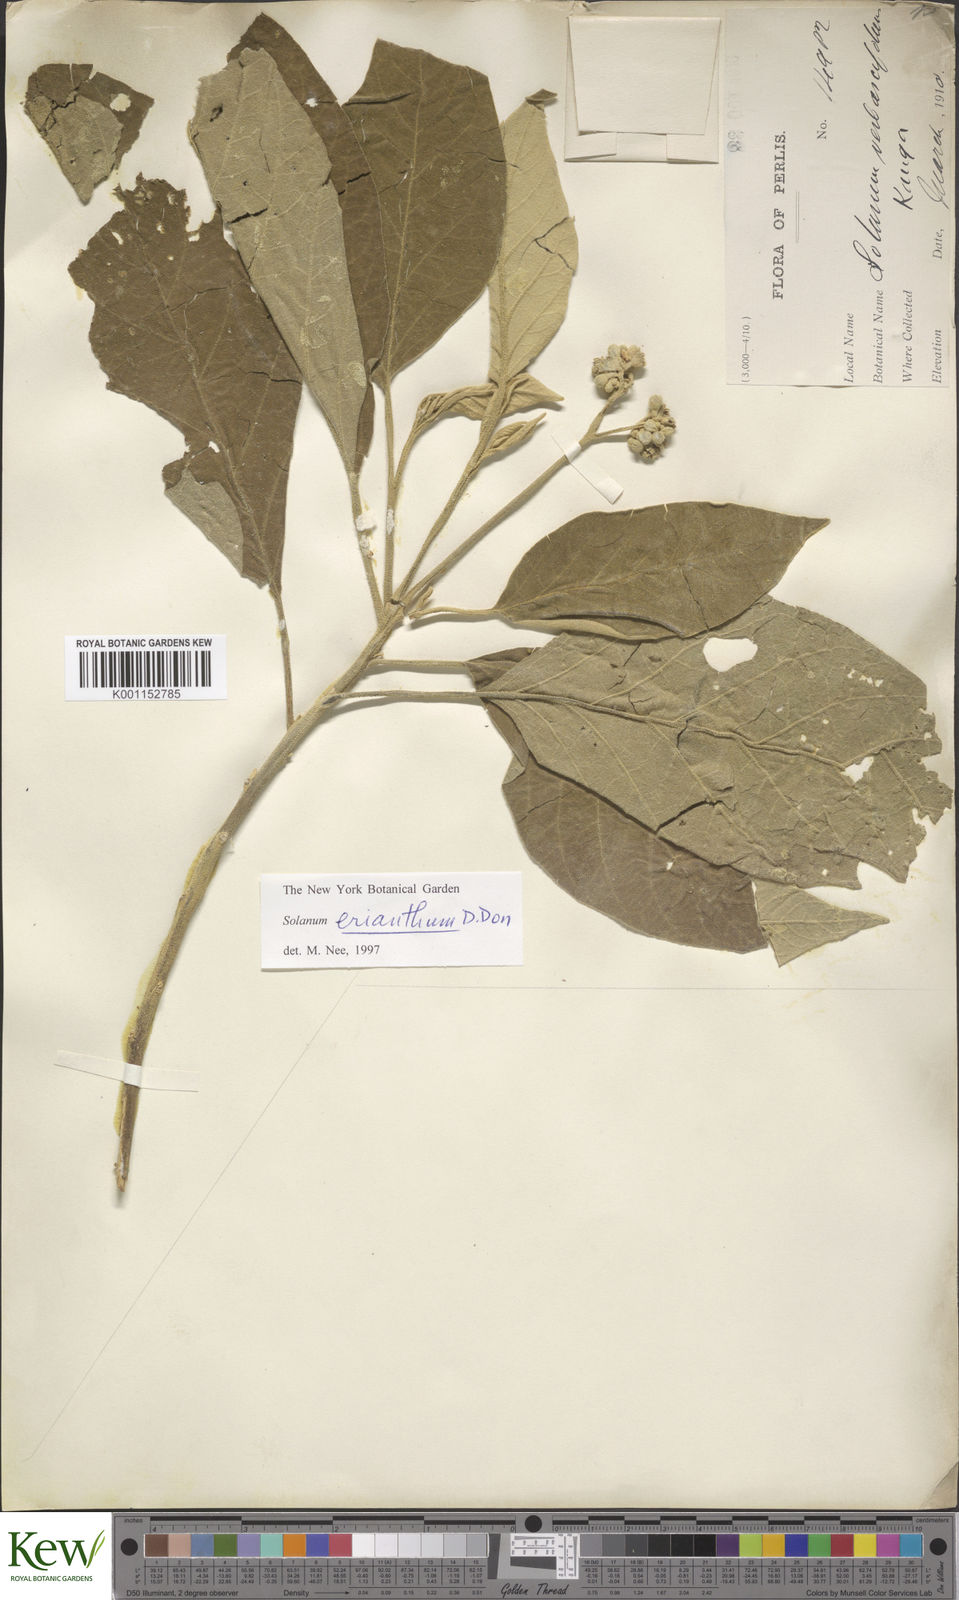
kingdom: Plantae
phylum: Tracheophyta
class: Magnoliopsida
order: Solanales
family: Solanaceae
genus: Solanum
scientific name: Solanum erianthum
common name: Tobacco-tree
